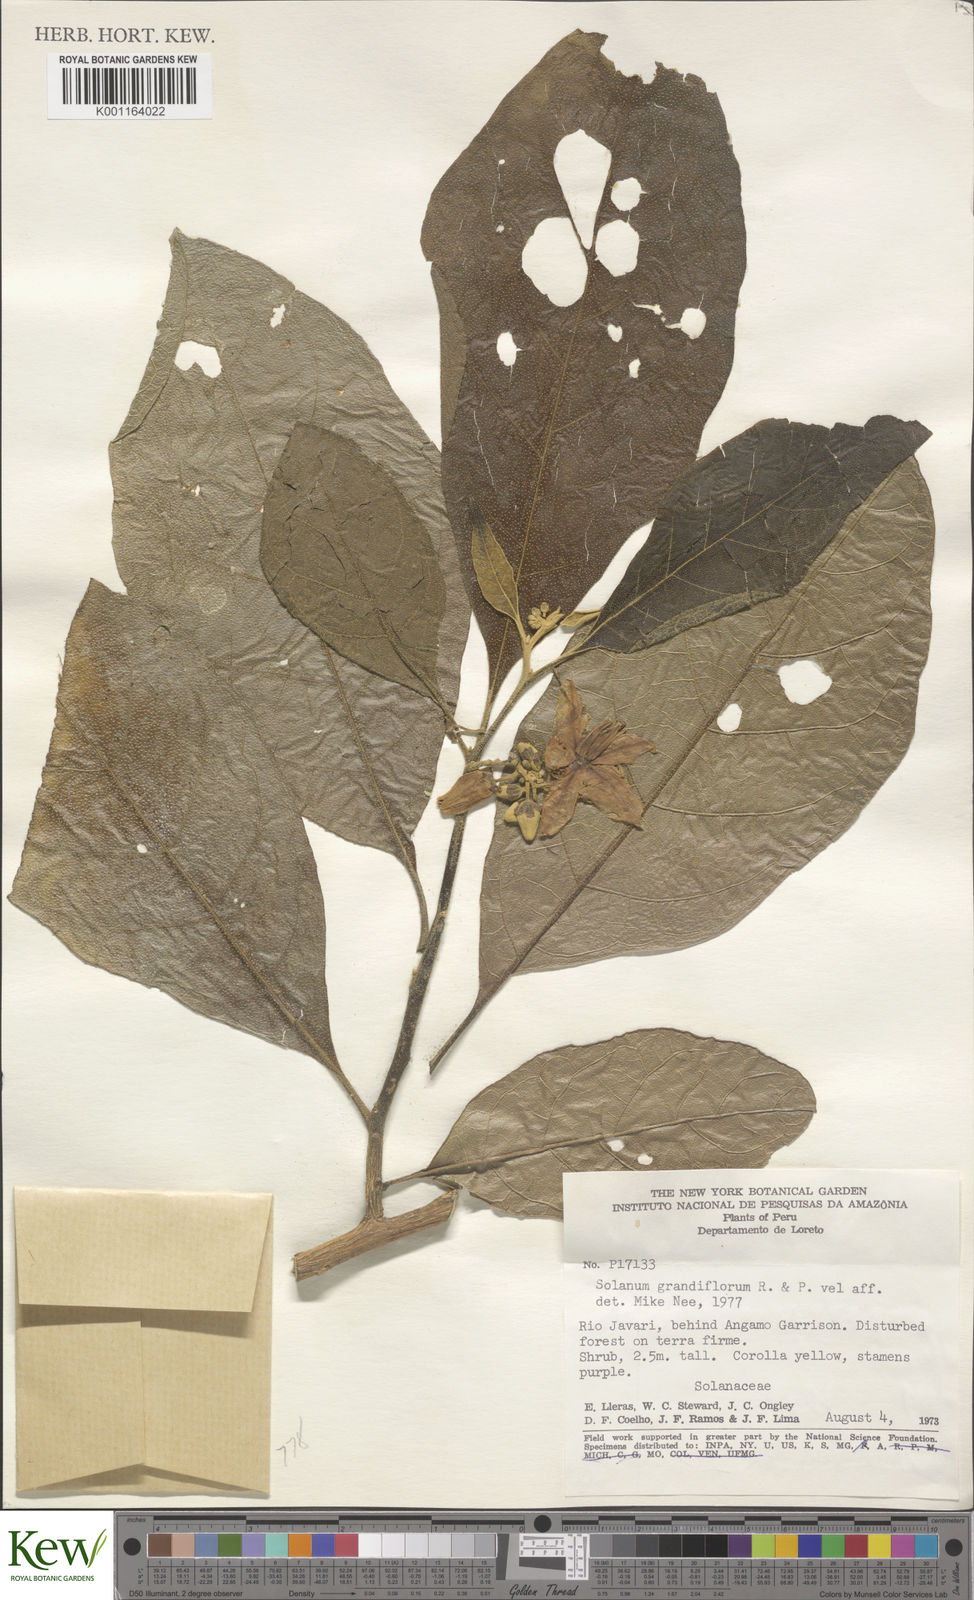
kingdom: Plantae
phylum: Tracheophyta
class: Magnoliopsida
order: Solanales
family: Solanaceae
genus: Solanum
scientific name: Solanum grandiflorum
